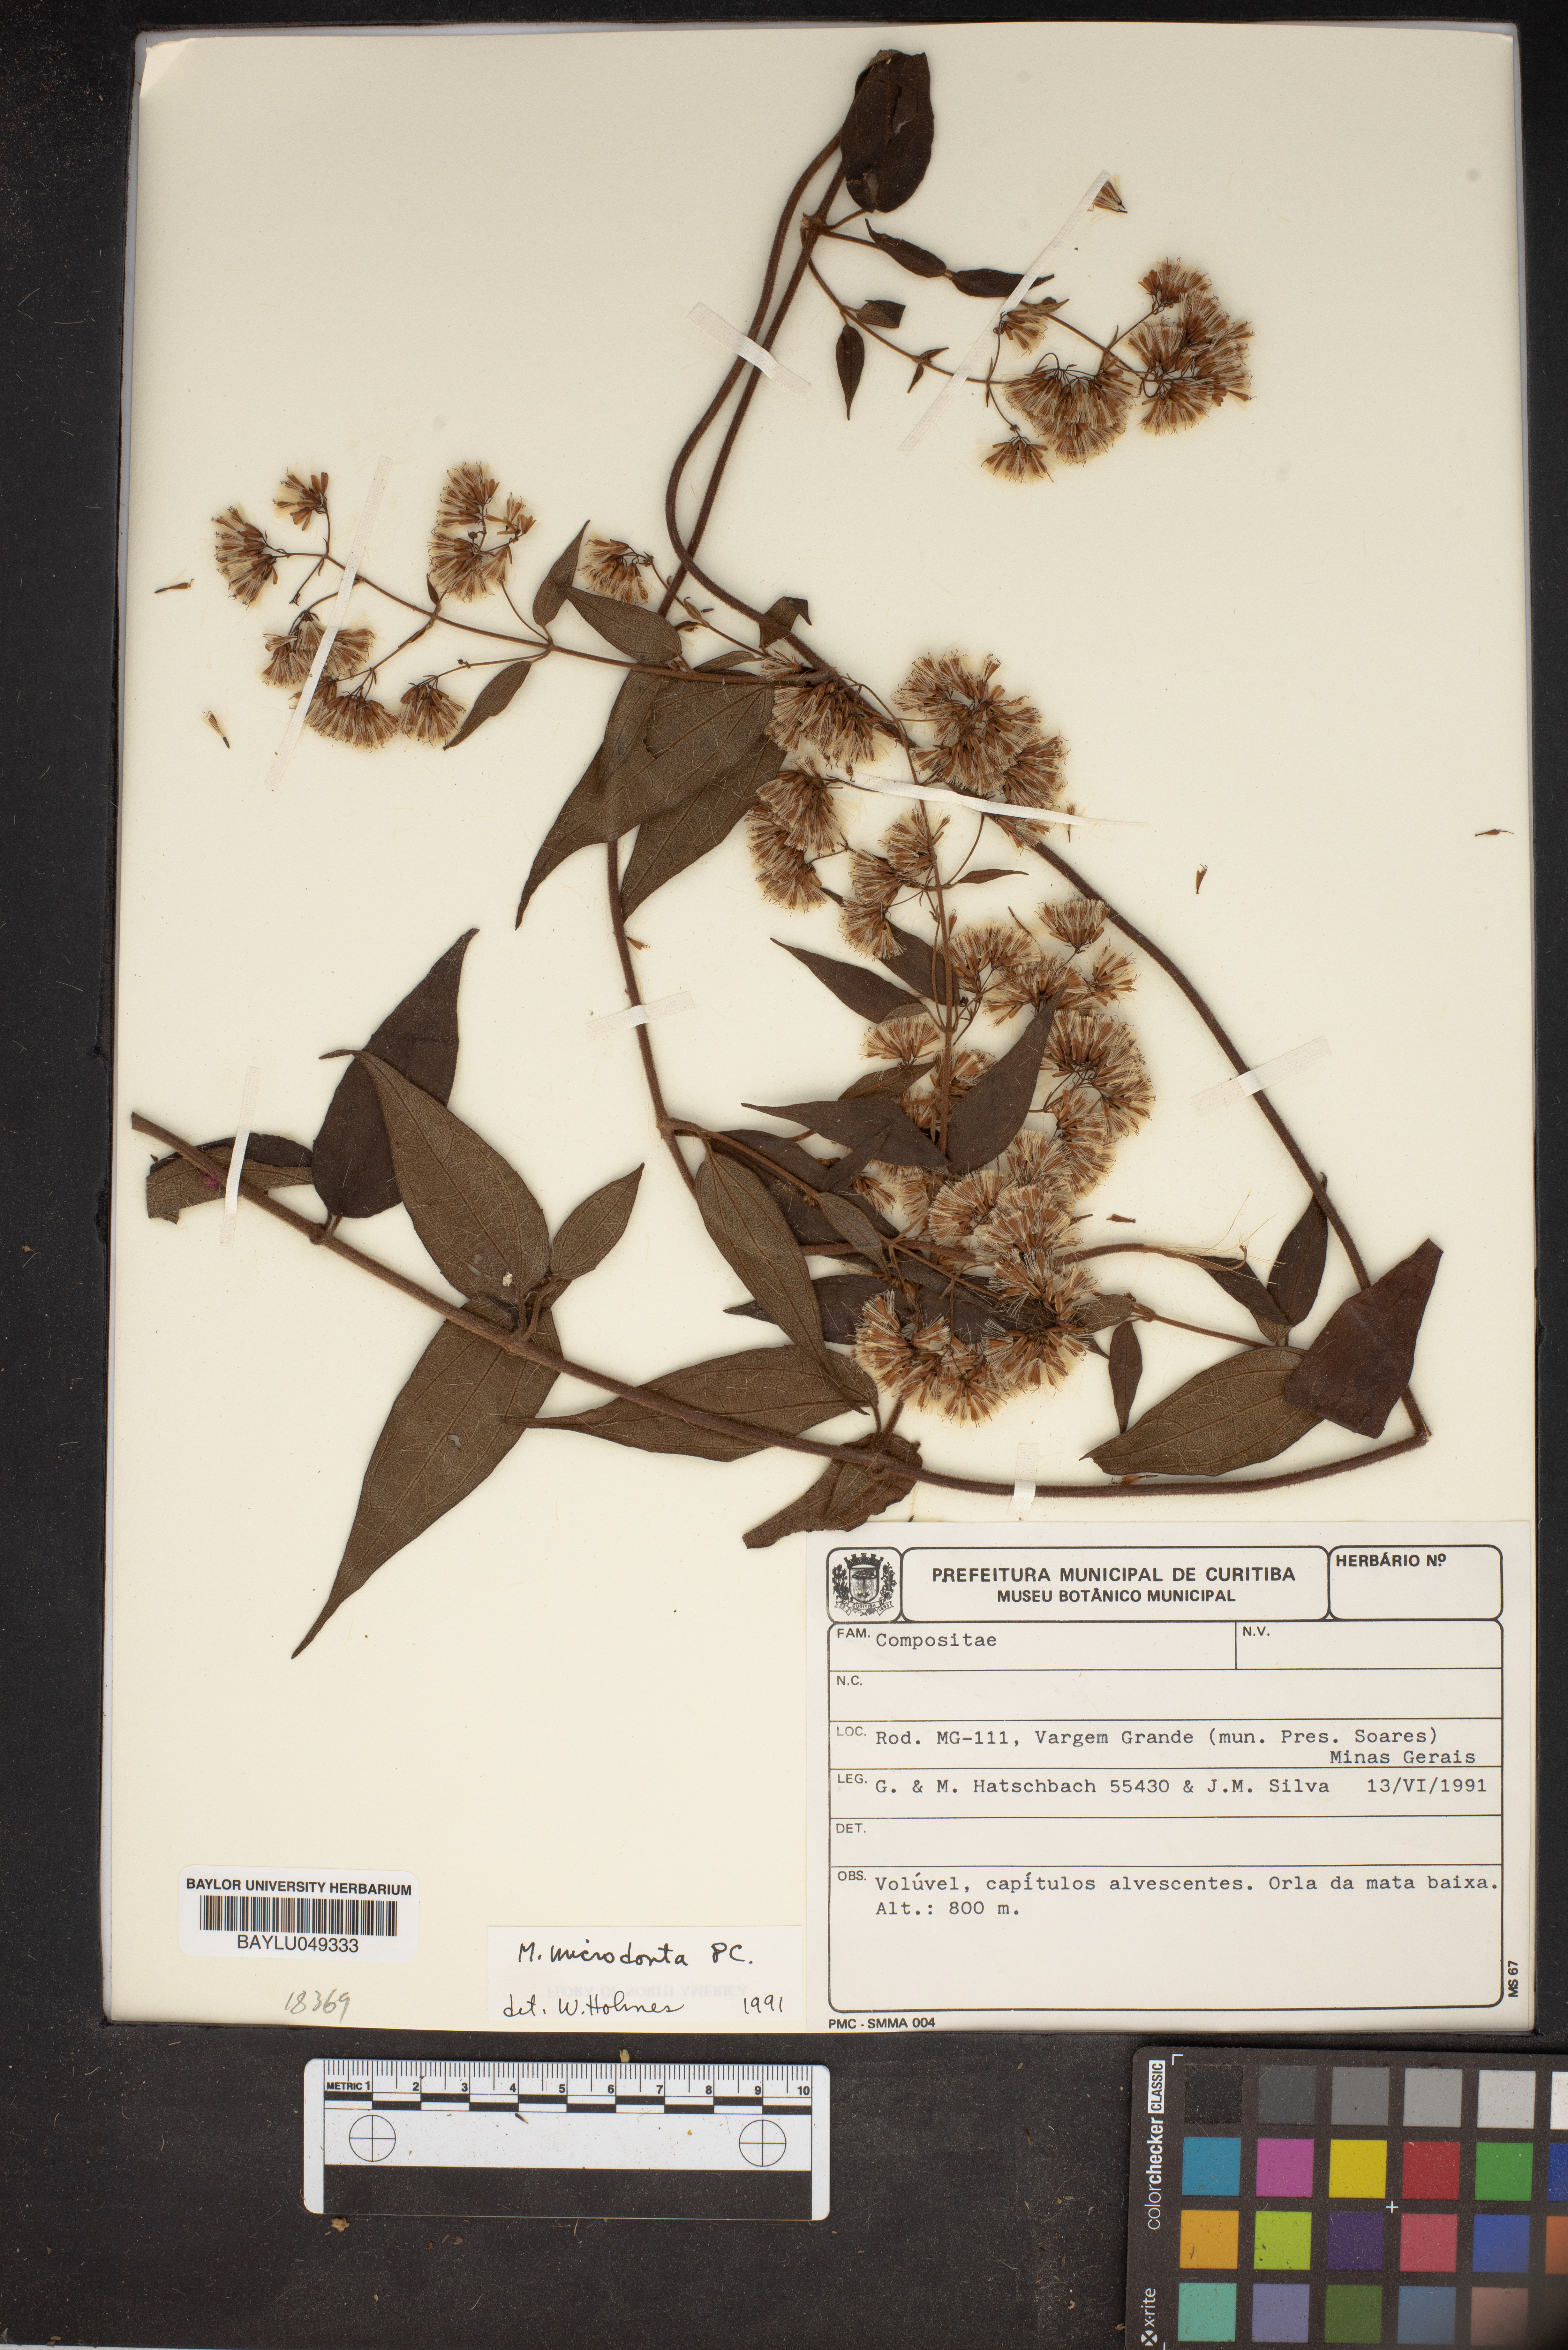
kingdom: Plantae
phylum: Tracheophyta
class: Magnoliopsida
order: Asterales
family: Asteraceae
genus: Mikania
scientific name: Mikania microdonta
